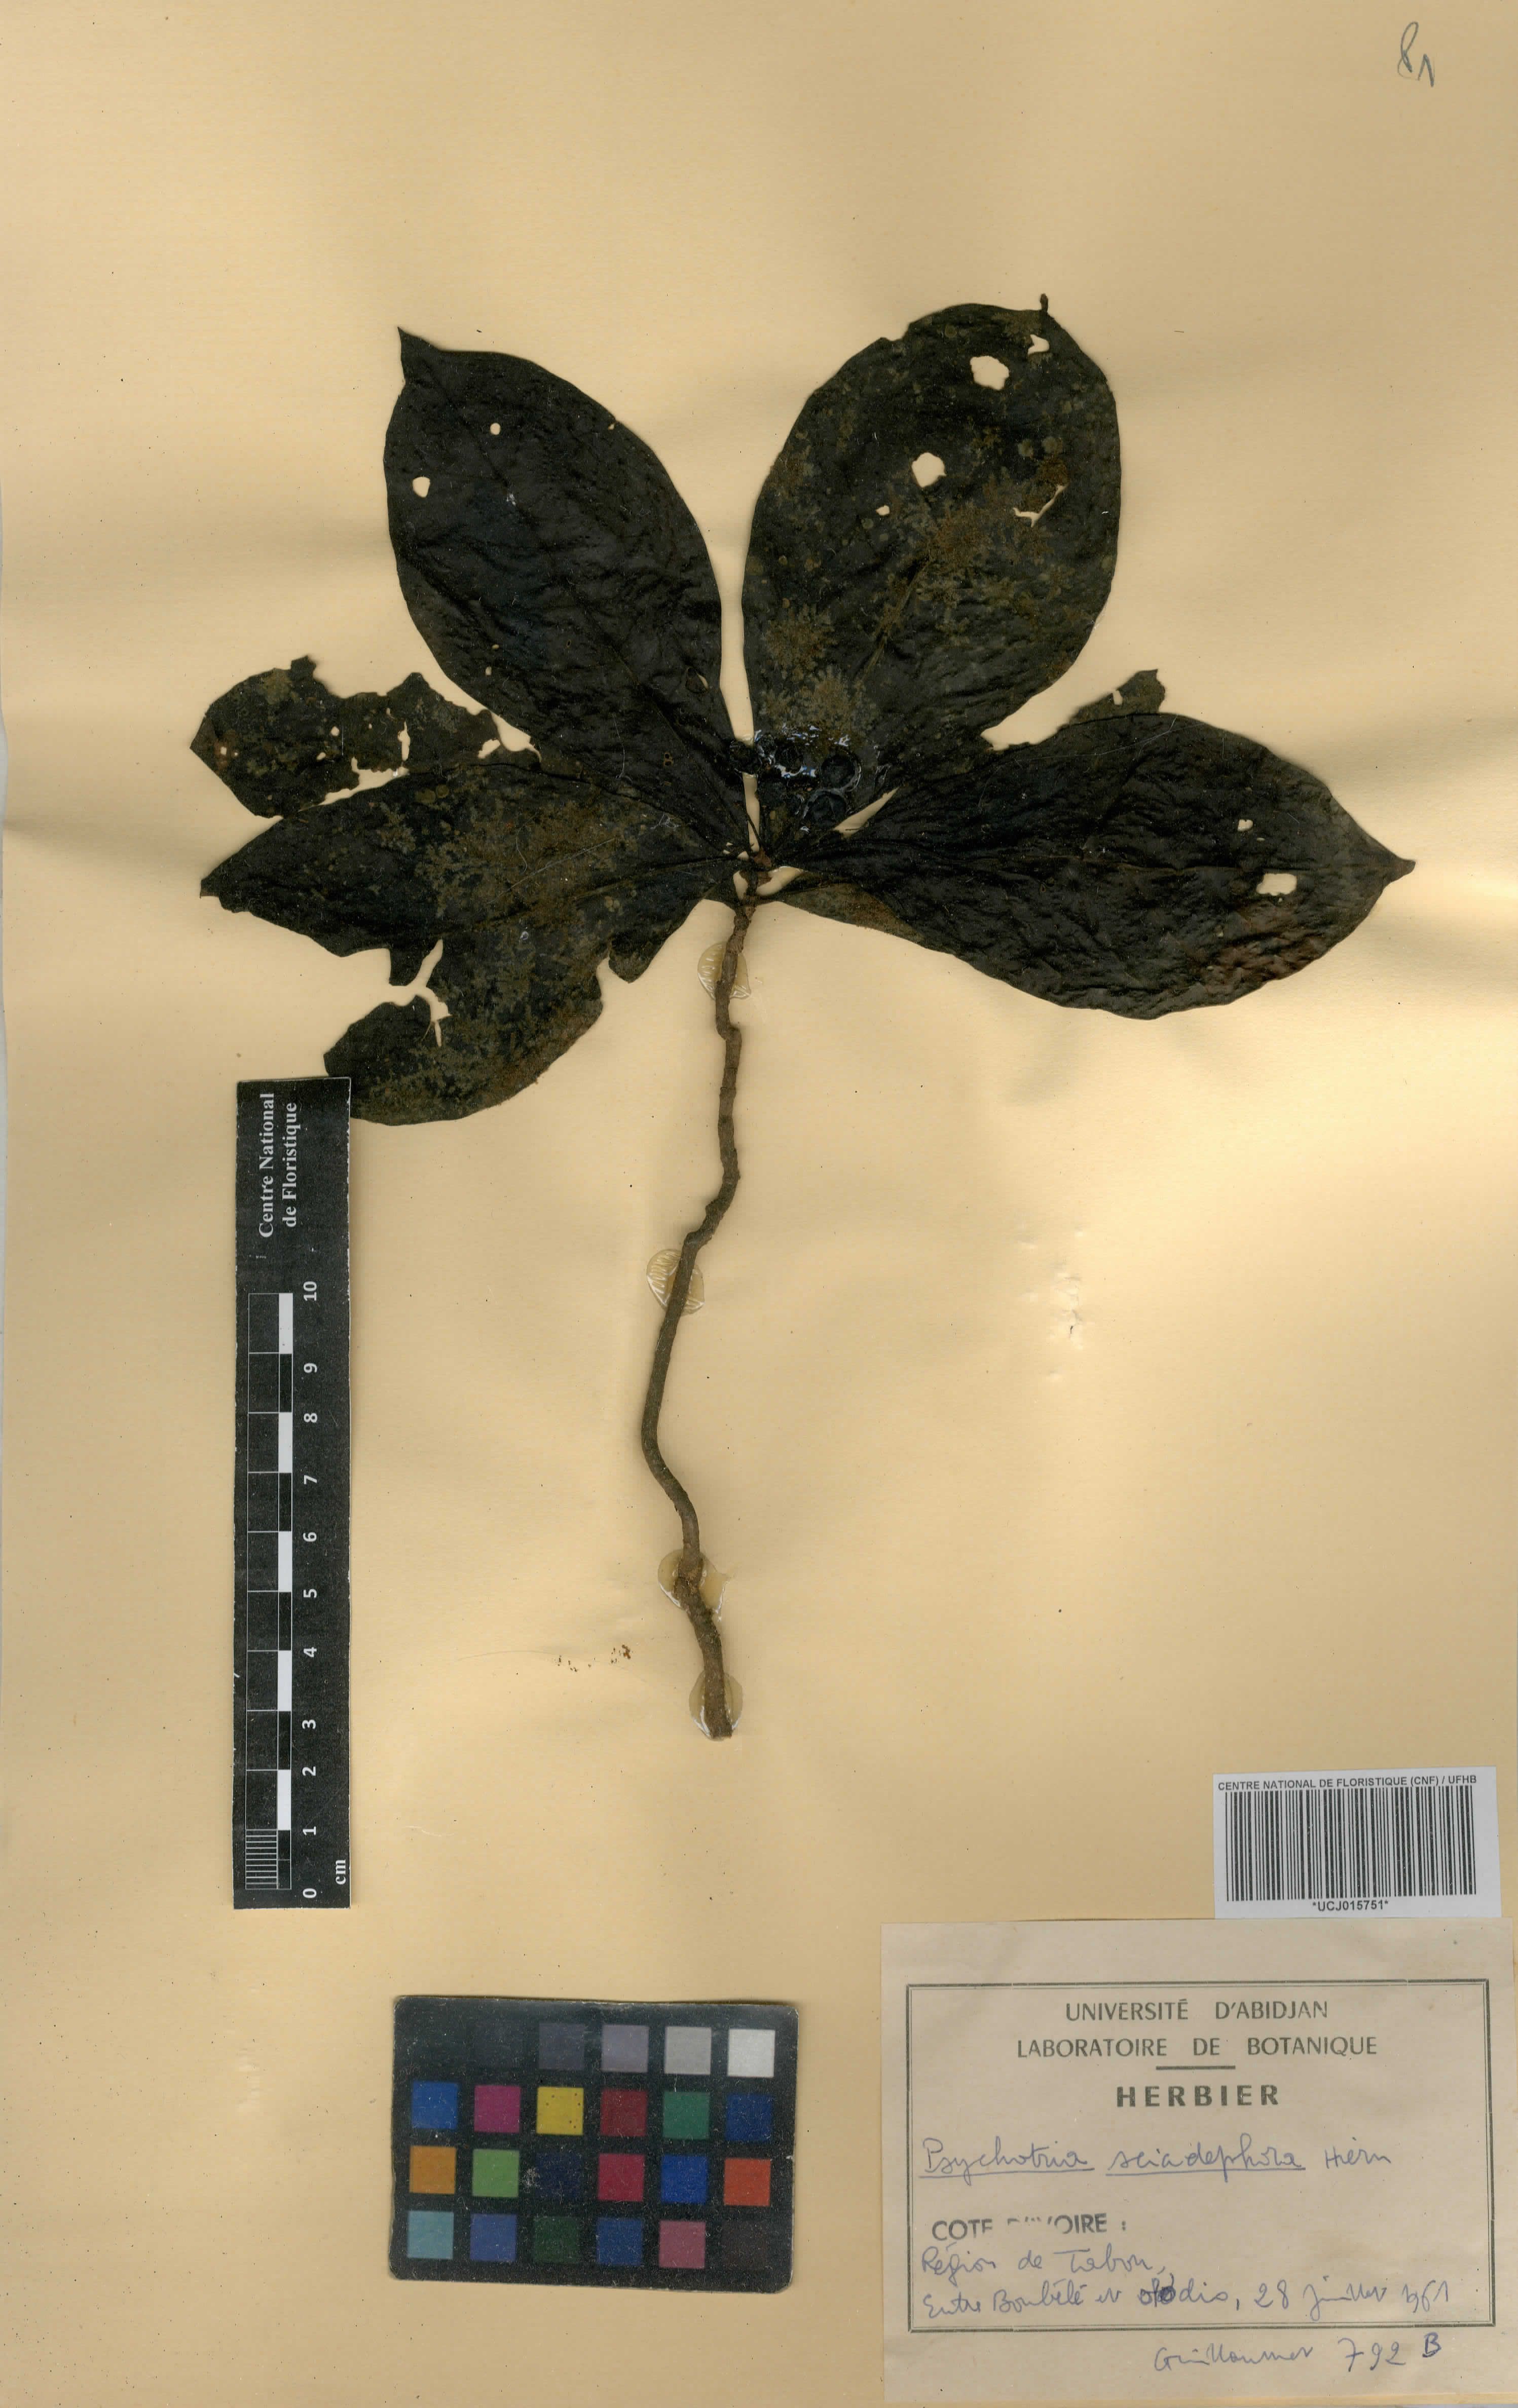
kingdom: Plantae
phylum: Tracheophyta
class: Magnoliopsida
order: Gentianales
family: Rubiaceae
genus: Eumachia
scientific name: Eumachia sciadephora
